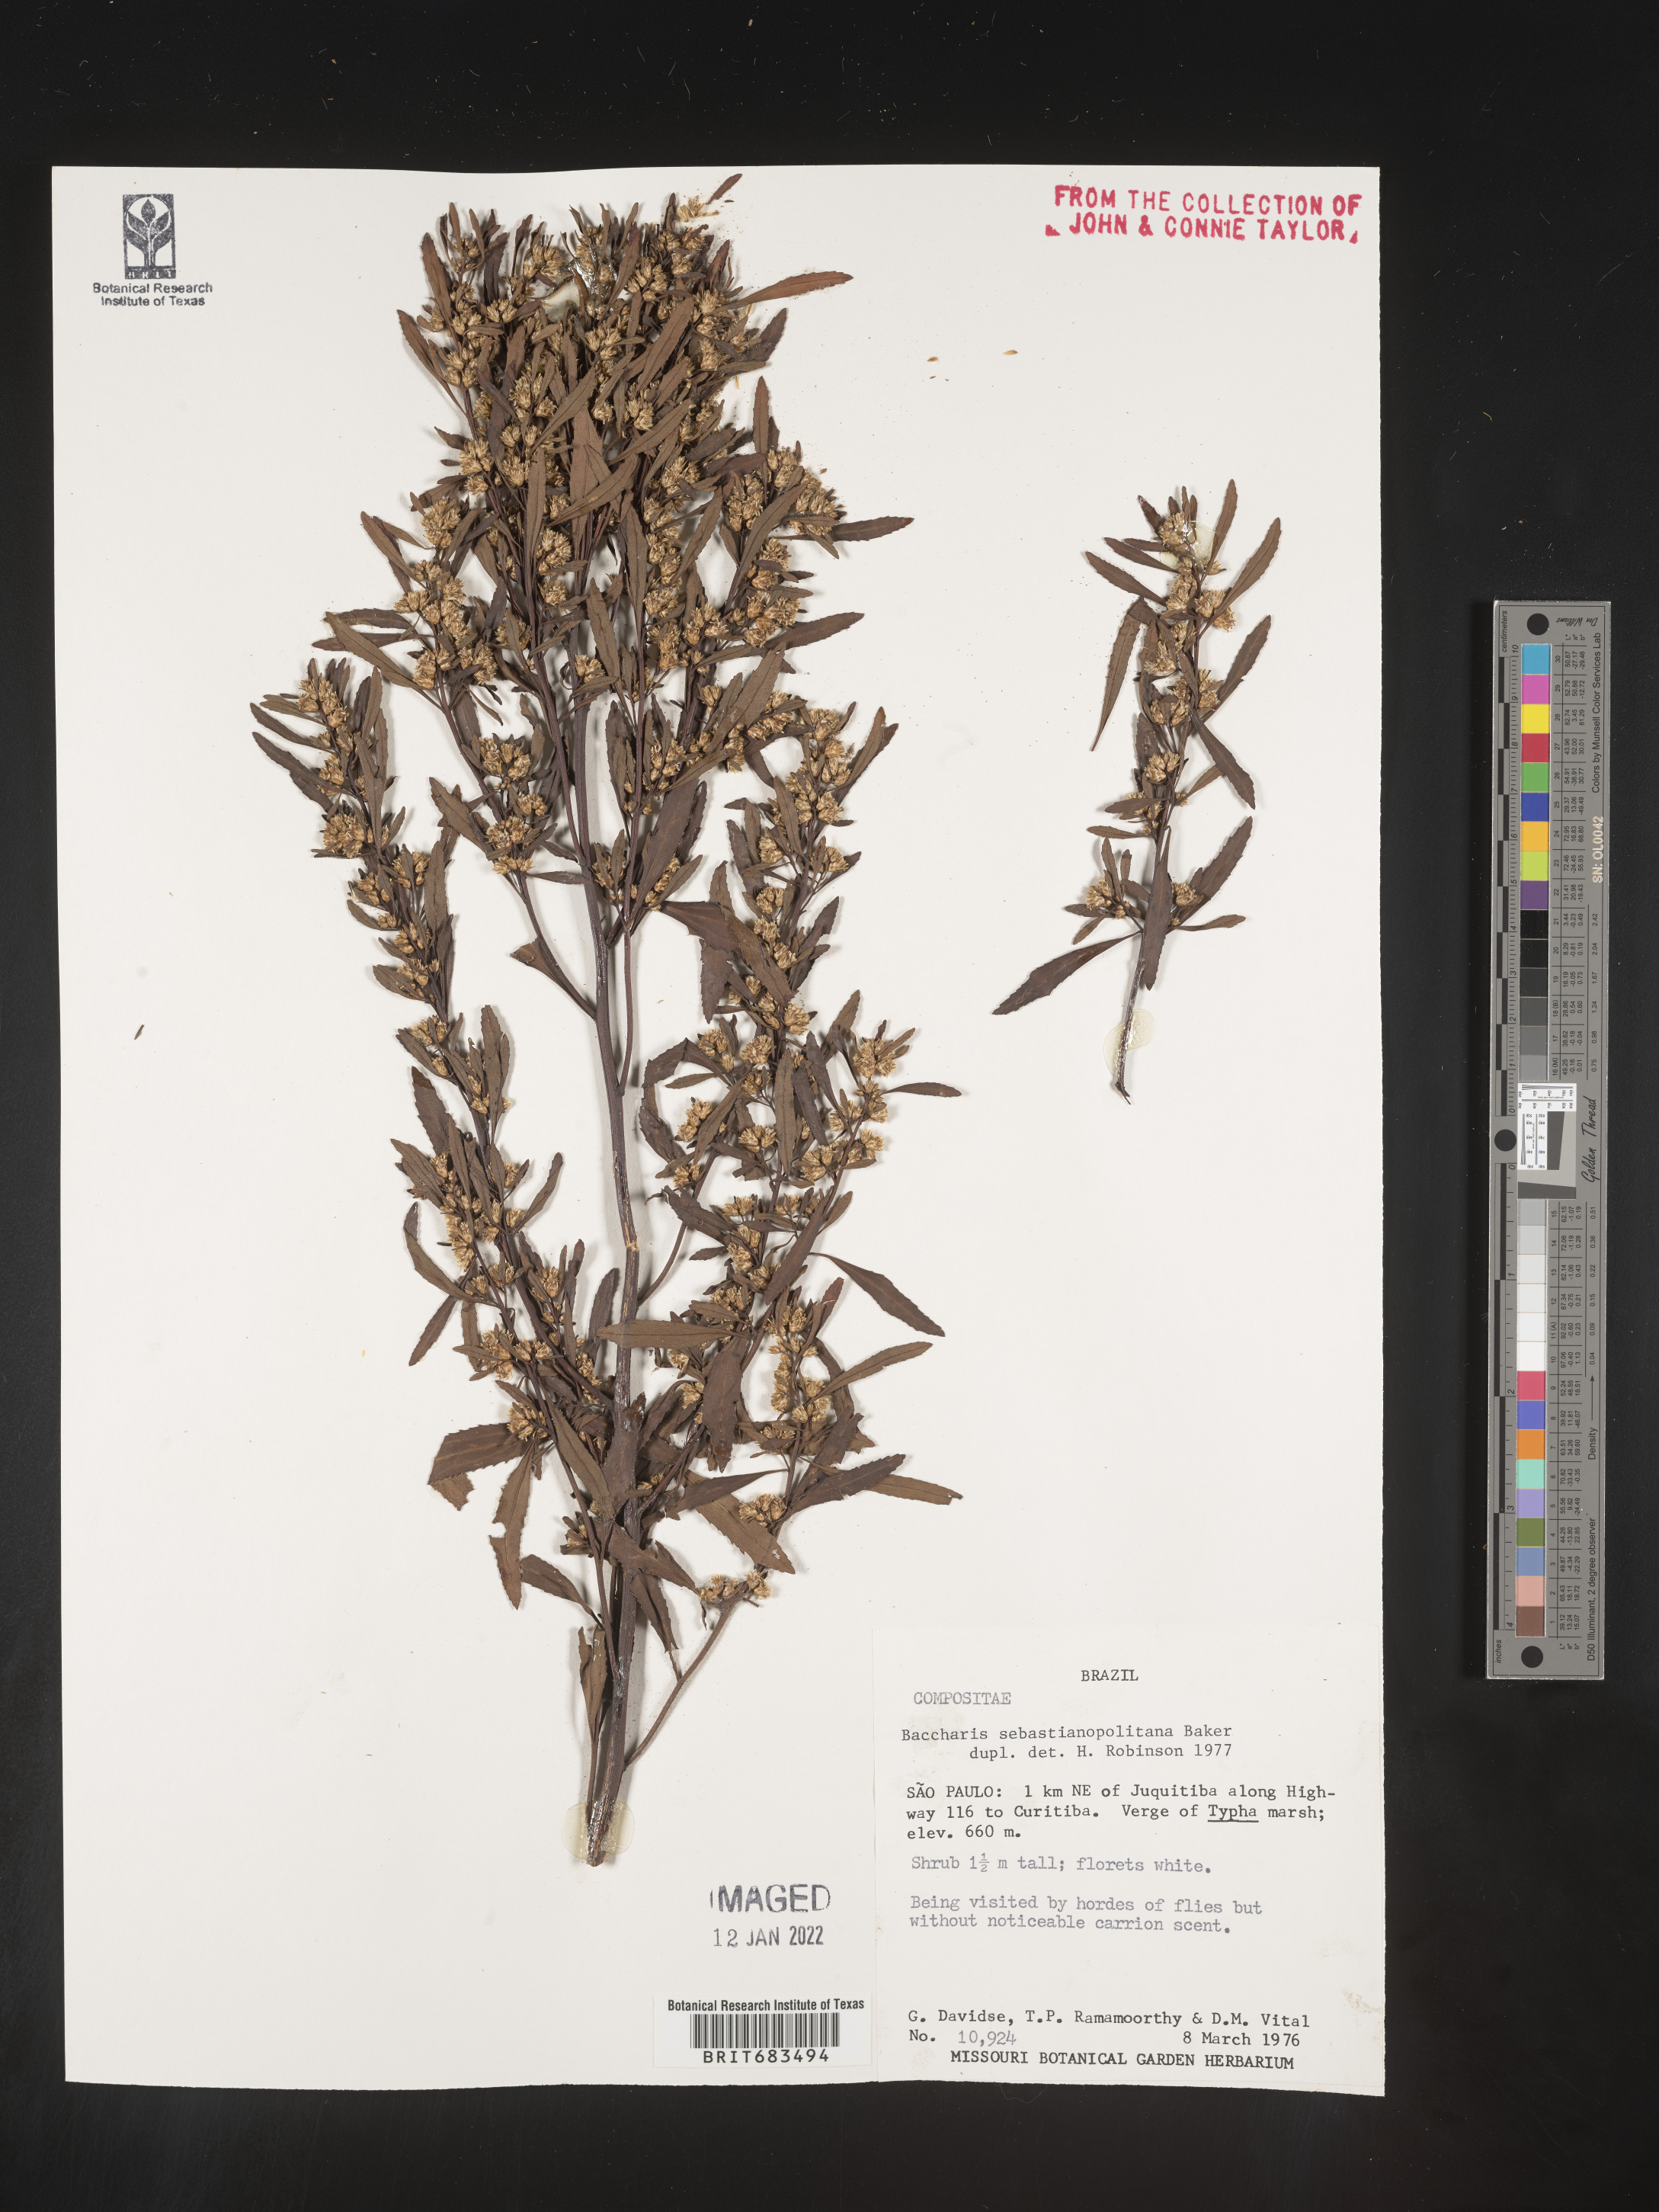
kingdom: Plantae
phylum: Tracheophyta
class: Magnoliopsida
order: Asterales
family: Asteraceae
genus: Baccharis
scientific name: Baccharis
